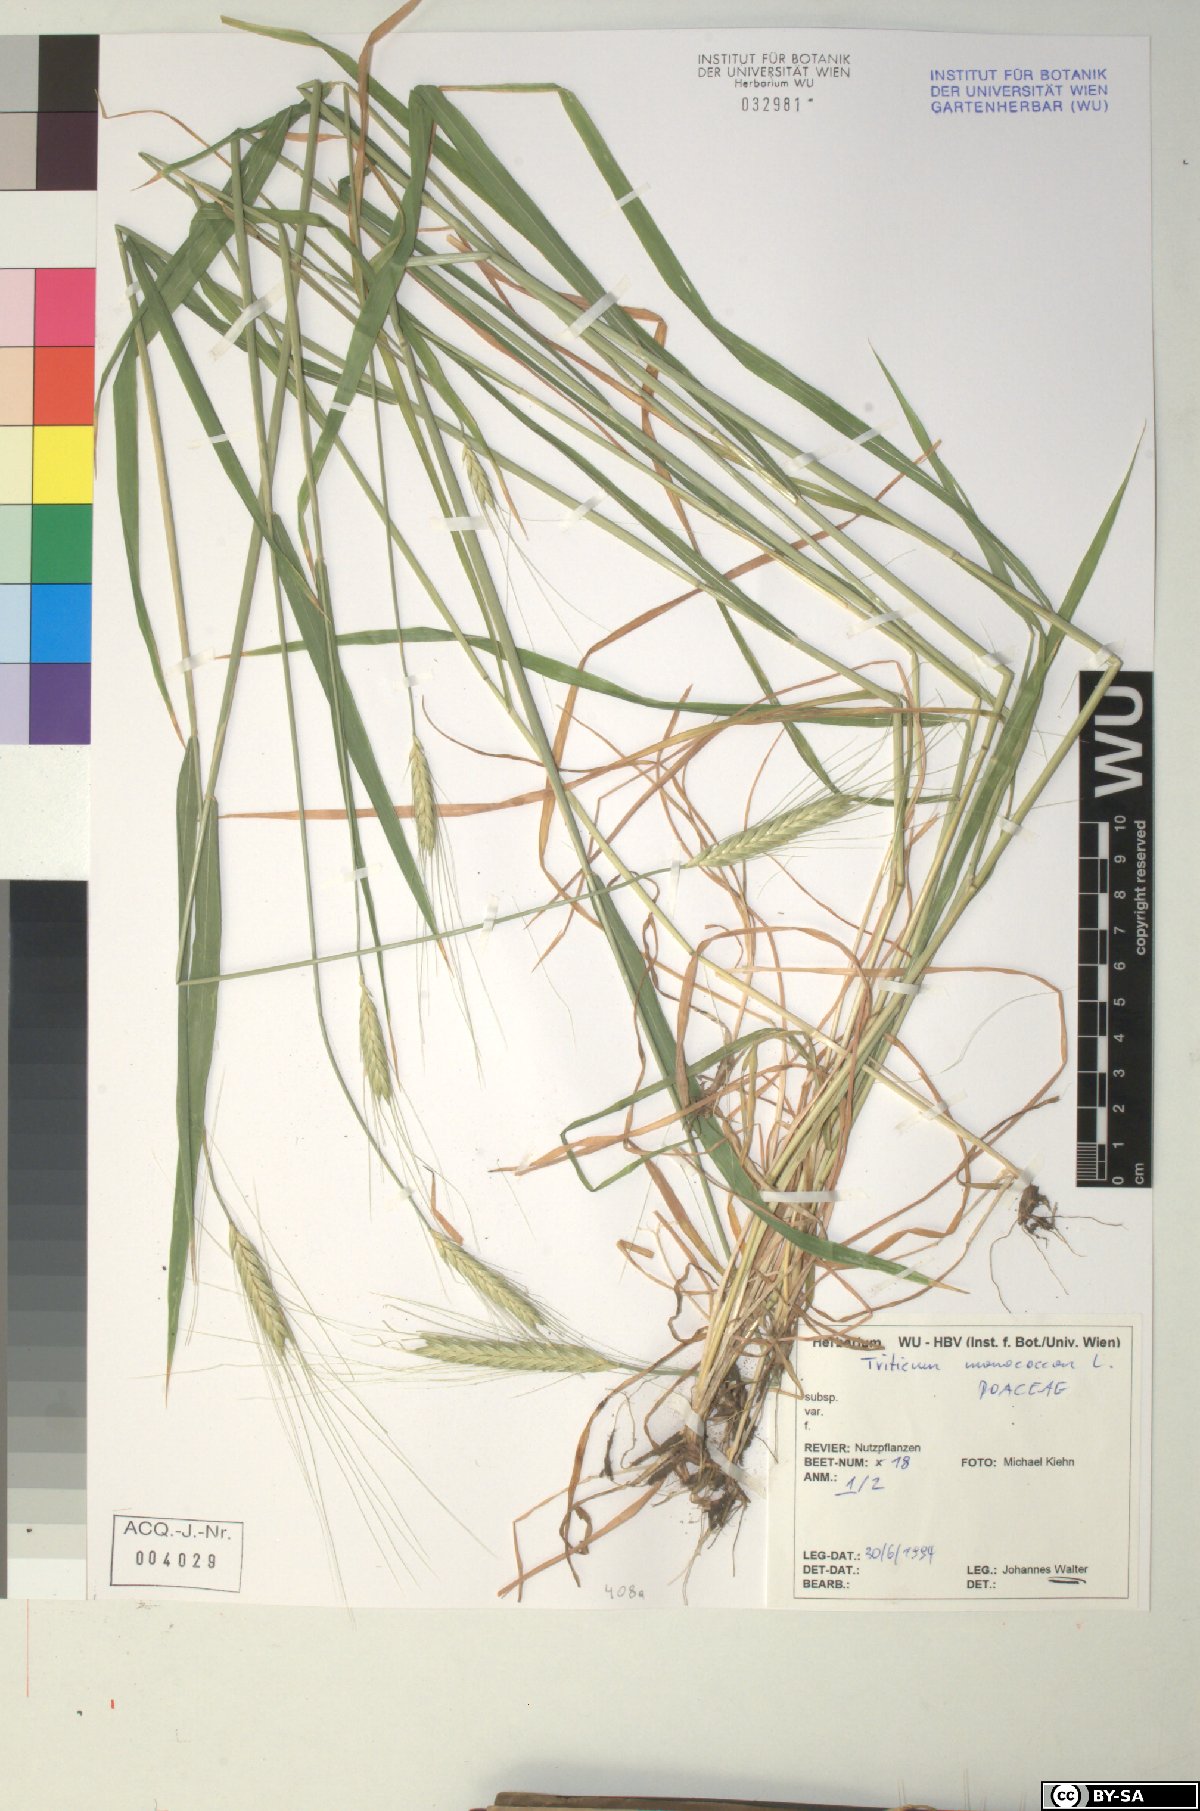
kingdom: Plantae
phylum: Tracheophyta
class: Liliopsida
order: Poales
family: Poaceae
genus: Triticum
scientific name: Triticum monococcum
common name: Einkorn
